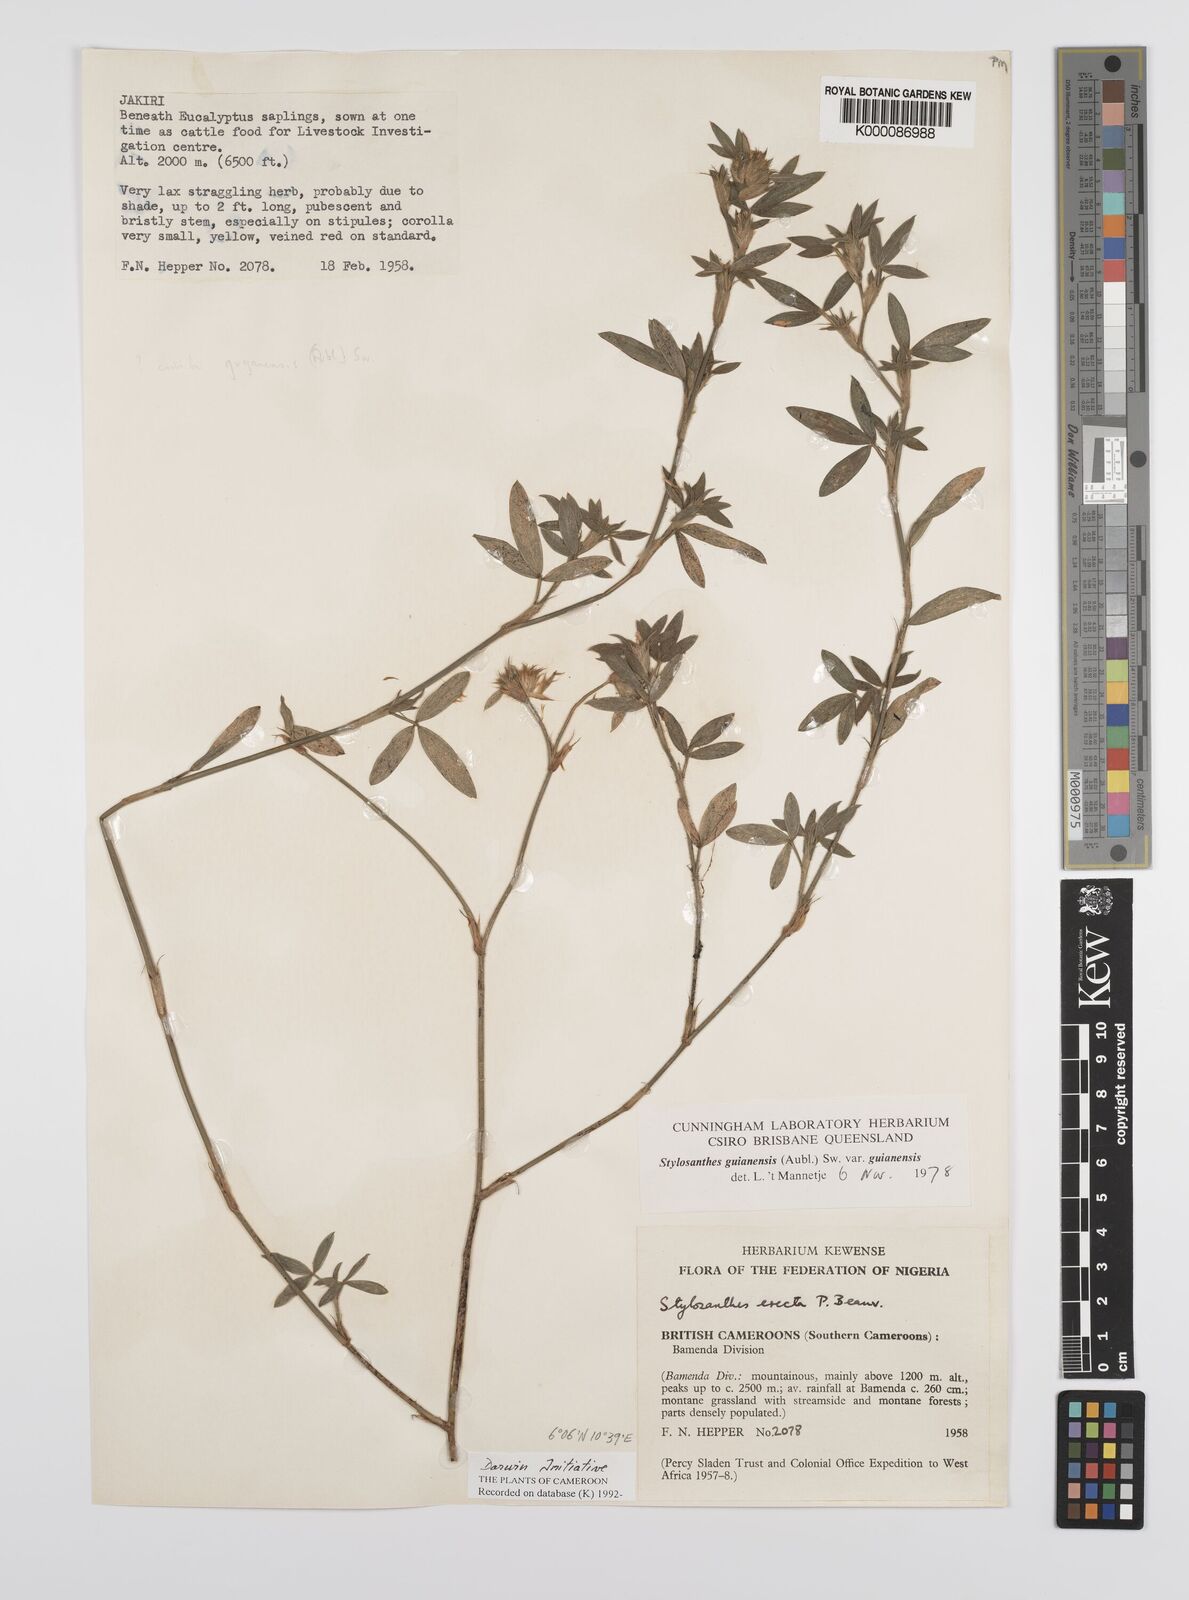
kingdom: Plantae
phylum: Tracheophyta
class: Magnoliopsida
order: Fabales
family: Fabaceae
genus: Stylosanthes
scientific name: Stylosanthes guianensis
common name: Pencil flower
